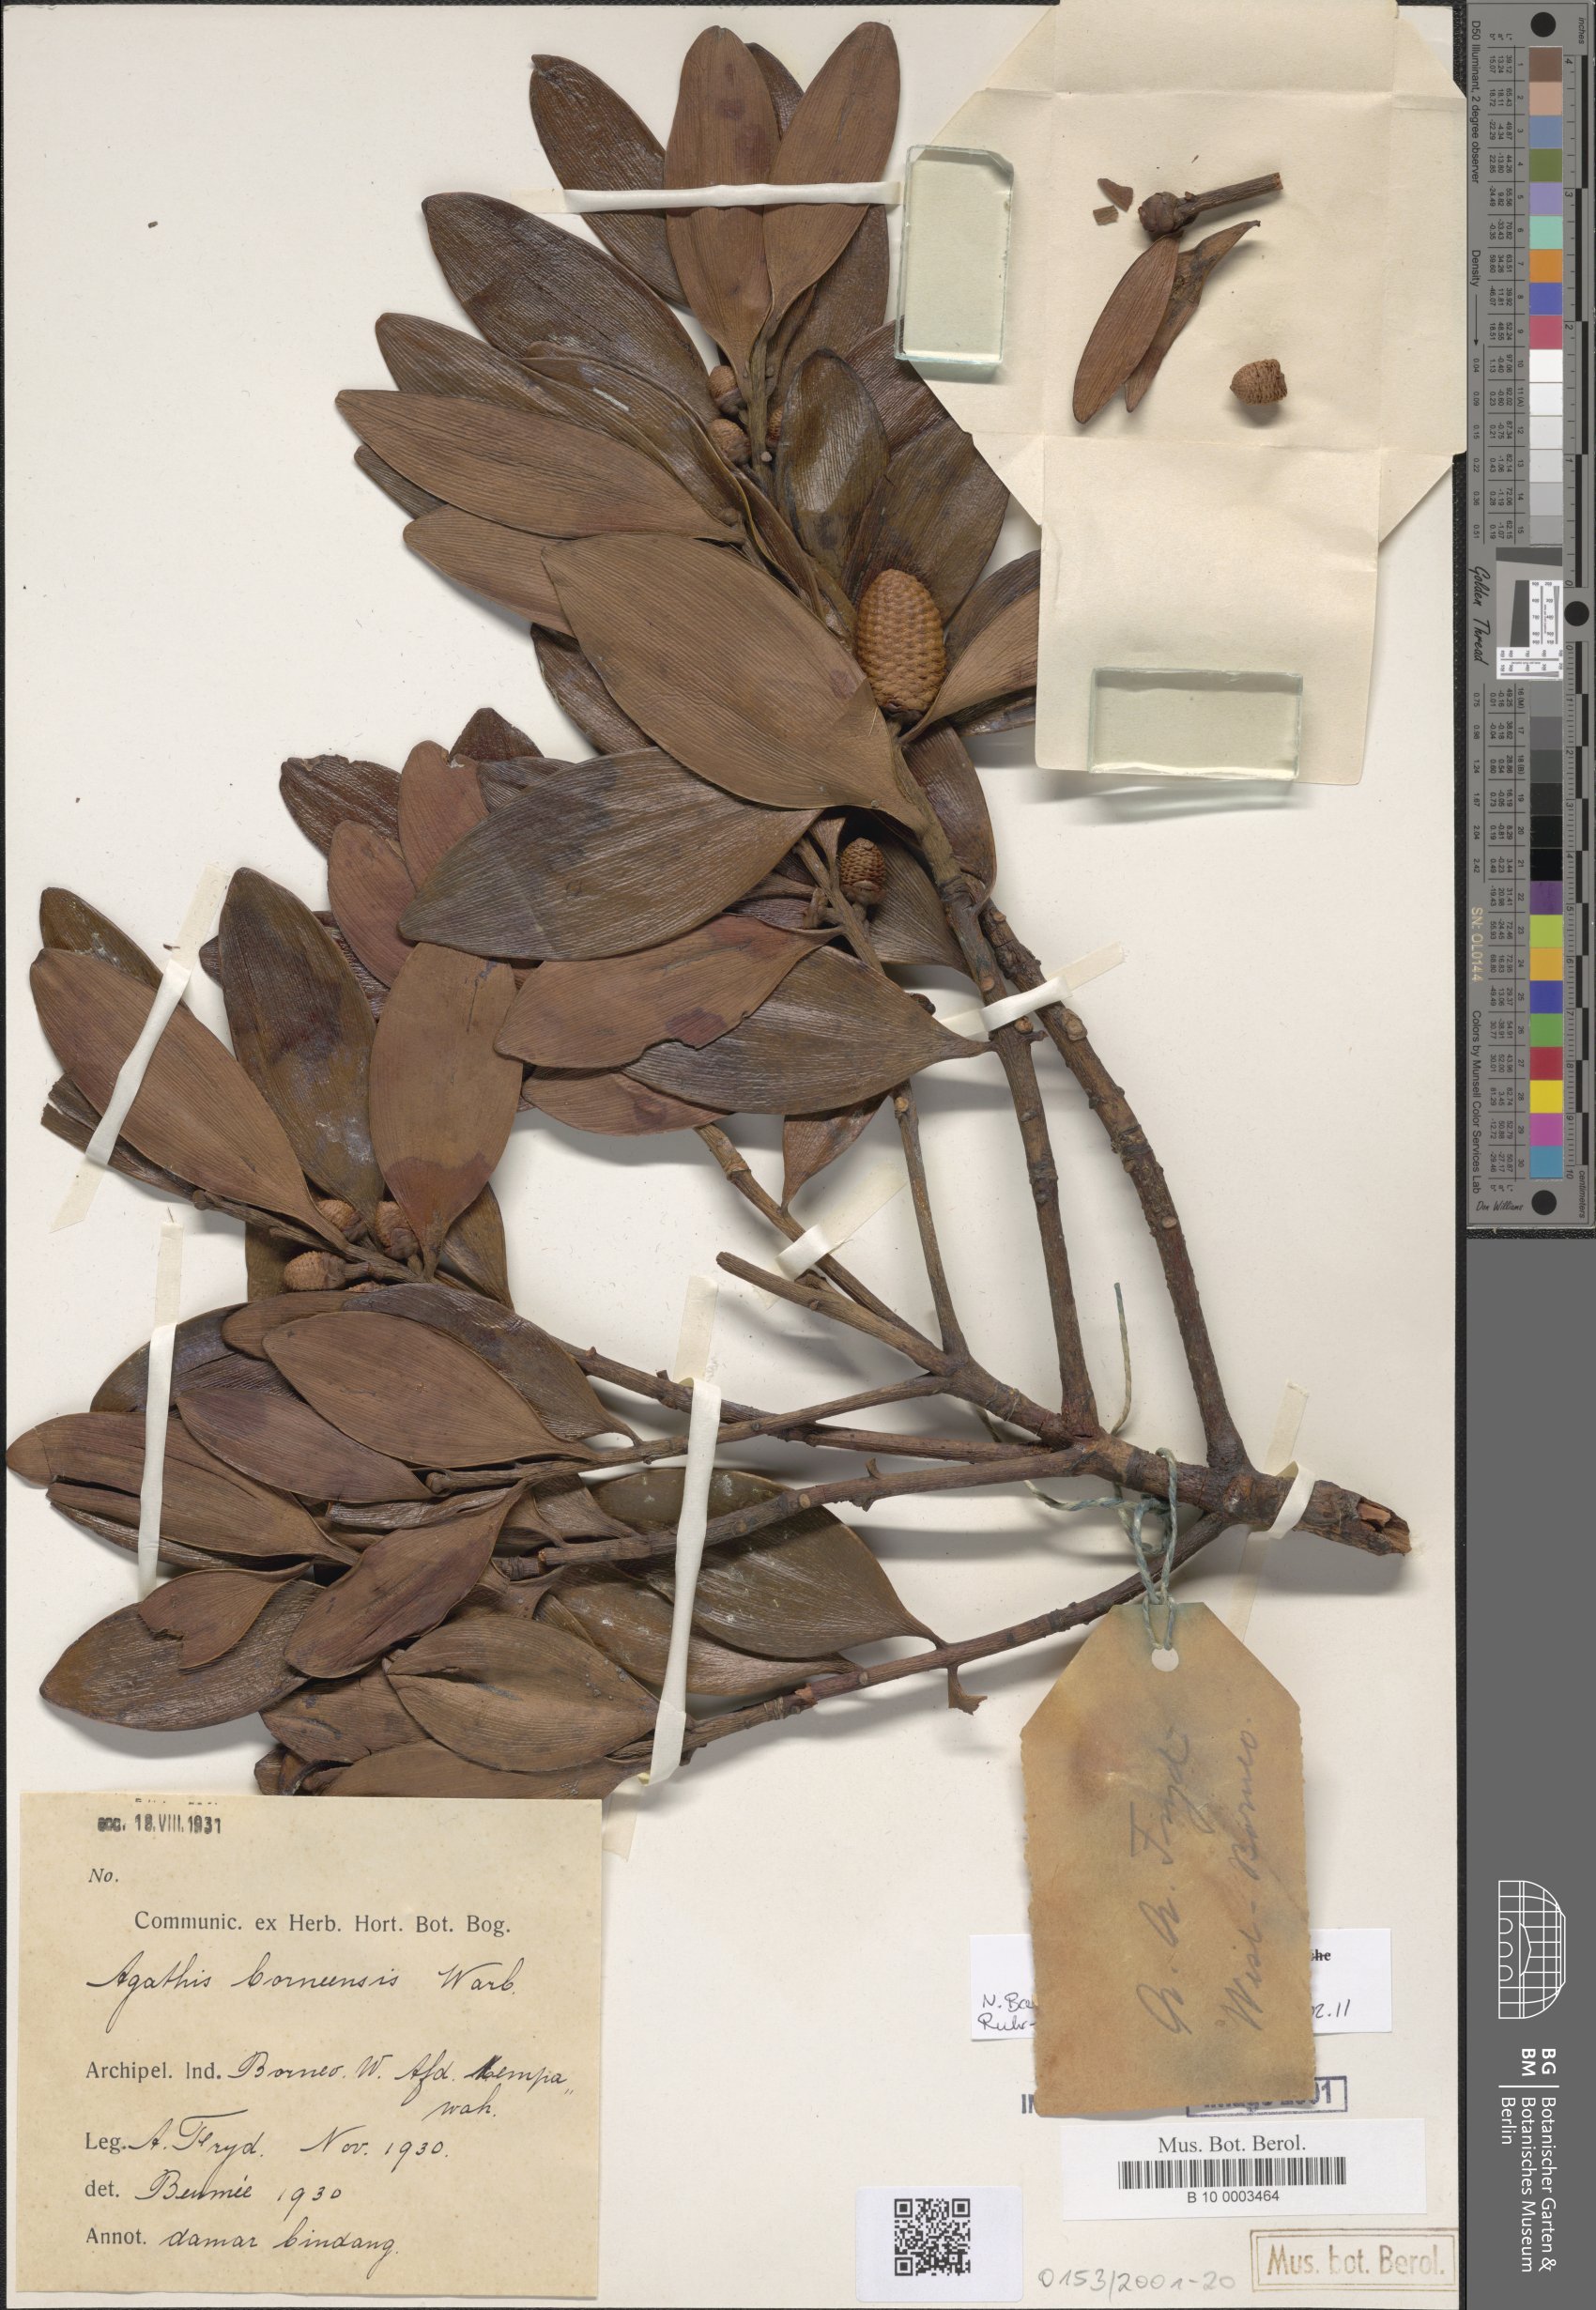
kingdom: Plantae
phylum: Tracheophyta
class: Pinopsida
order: Pinales
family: Araucariaceae
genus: Agathis
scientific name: Agathis borneensis
